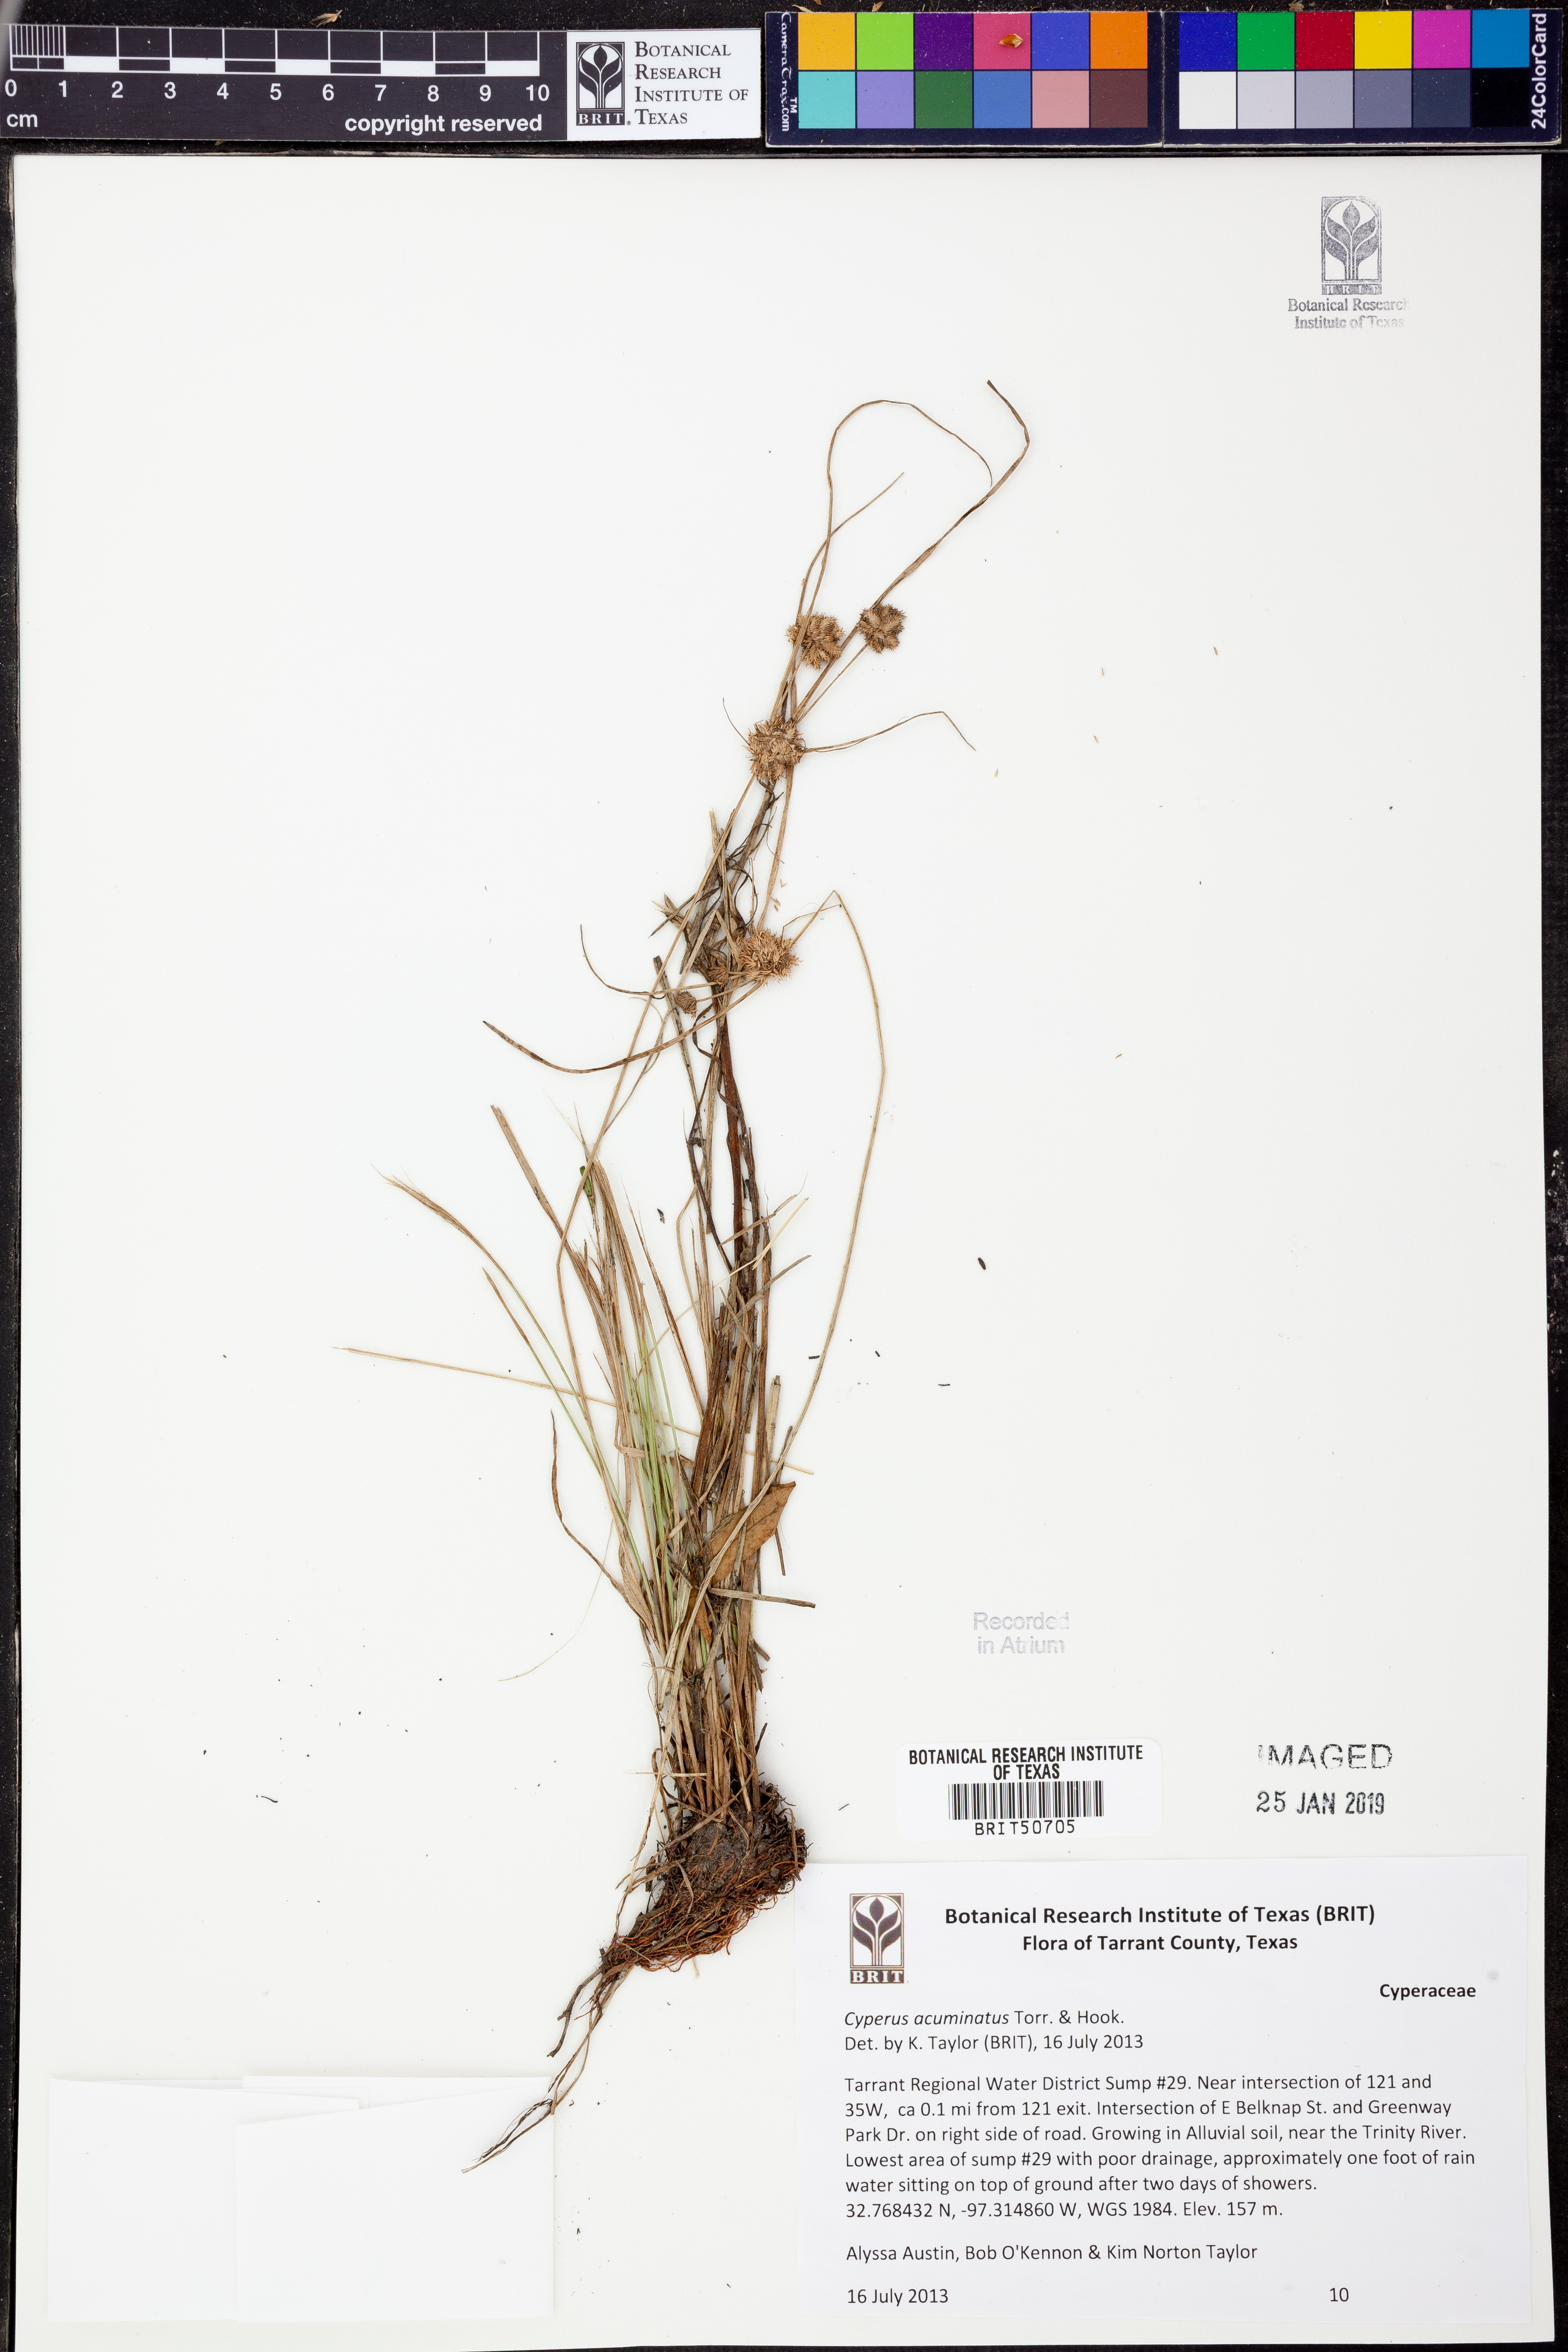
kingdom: Plantae
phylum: Tracheophyta
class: Liliopsida
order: Poales
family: Cyperaceae
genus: Cyperus
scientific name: Cyperus acuminatus
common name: Short-pointed cyperus
